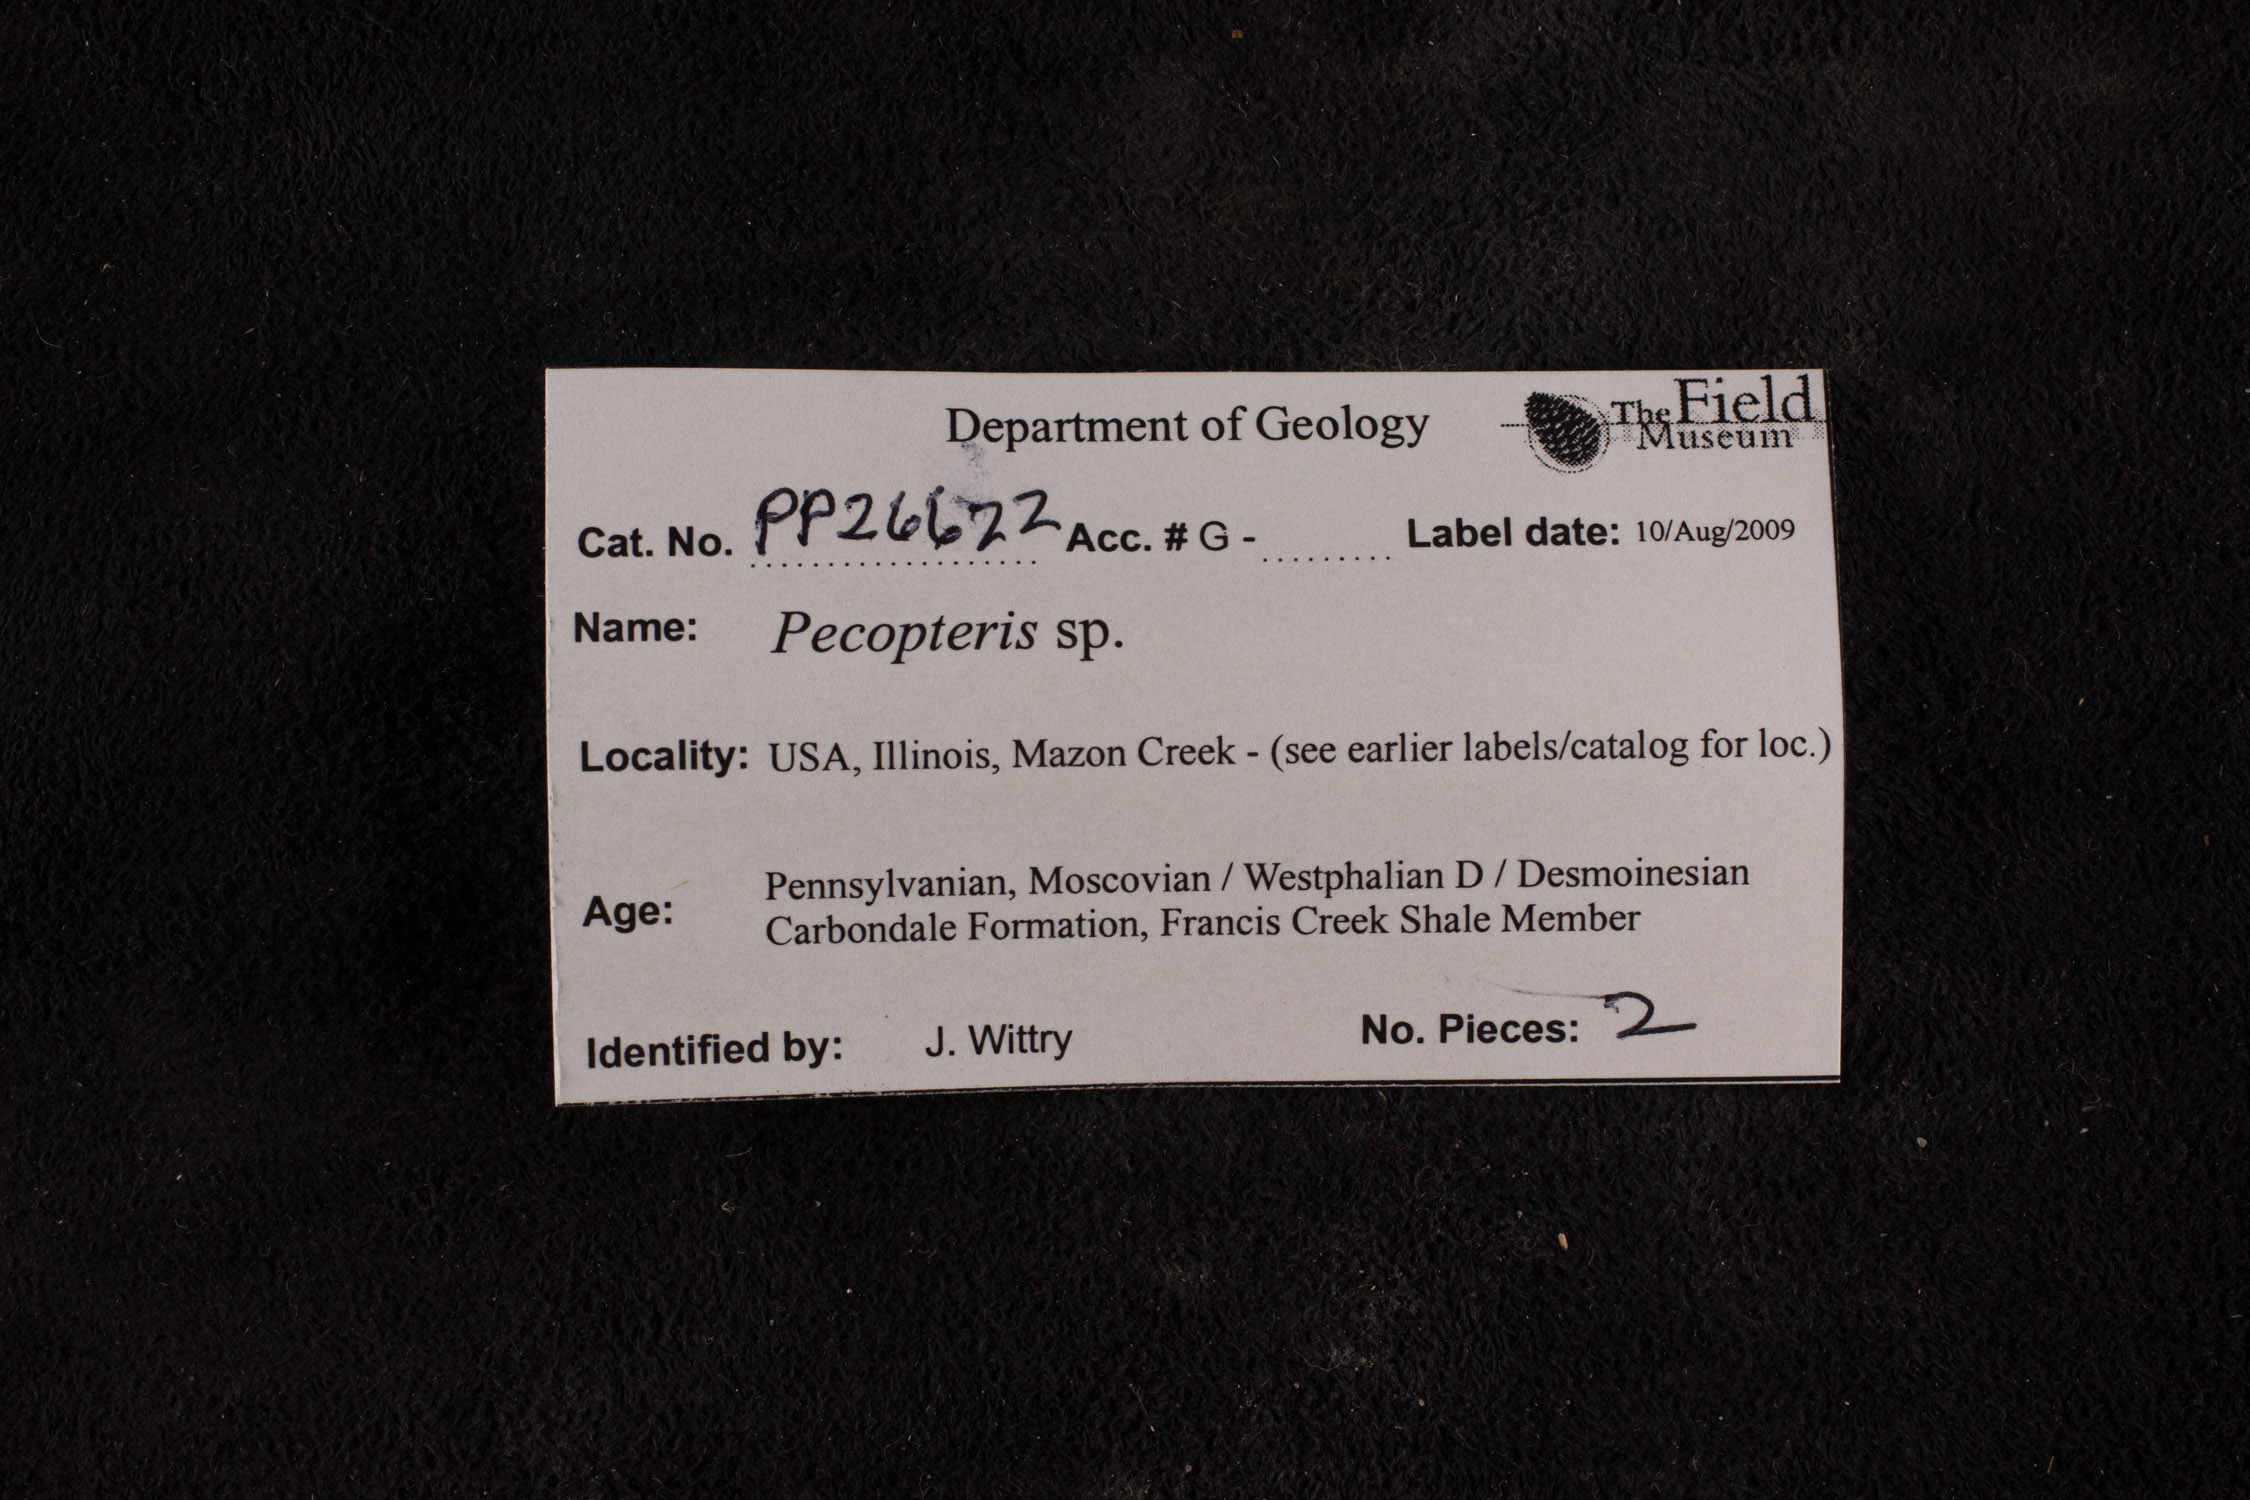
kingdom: Plantae
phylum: Tracheophyta
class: Polypodiopsida
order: Marattiales
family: Asterothecaceae
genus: Pecopteris
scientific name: Pecopteris
